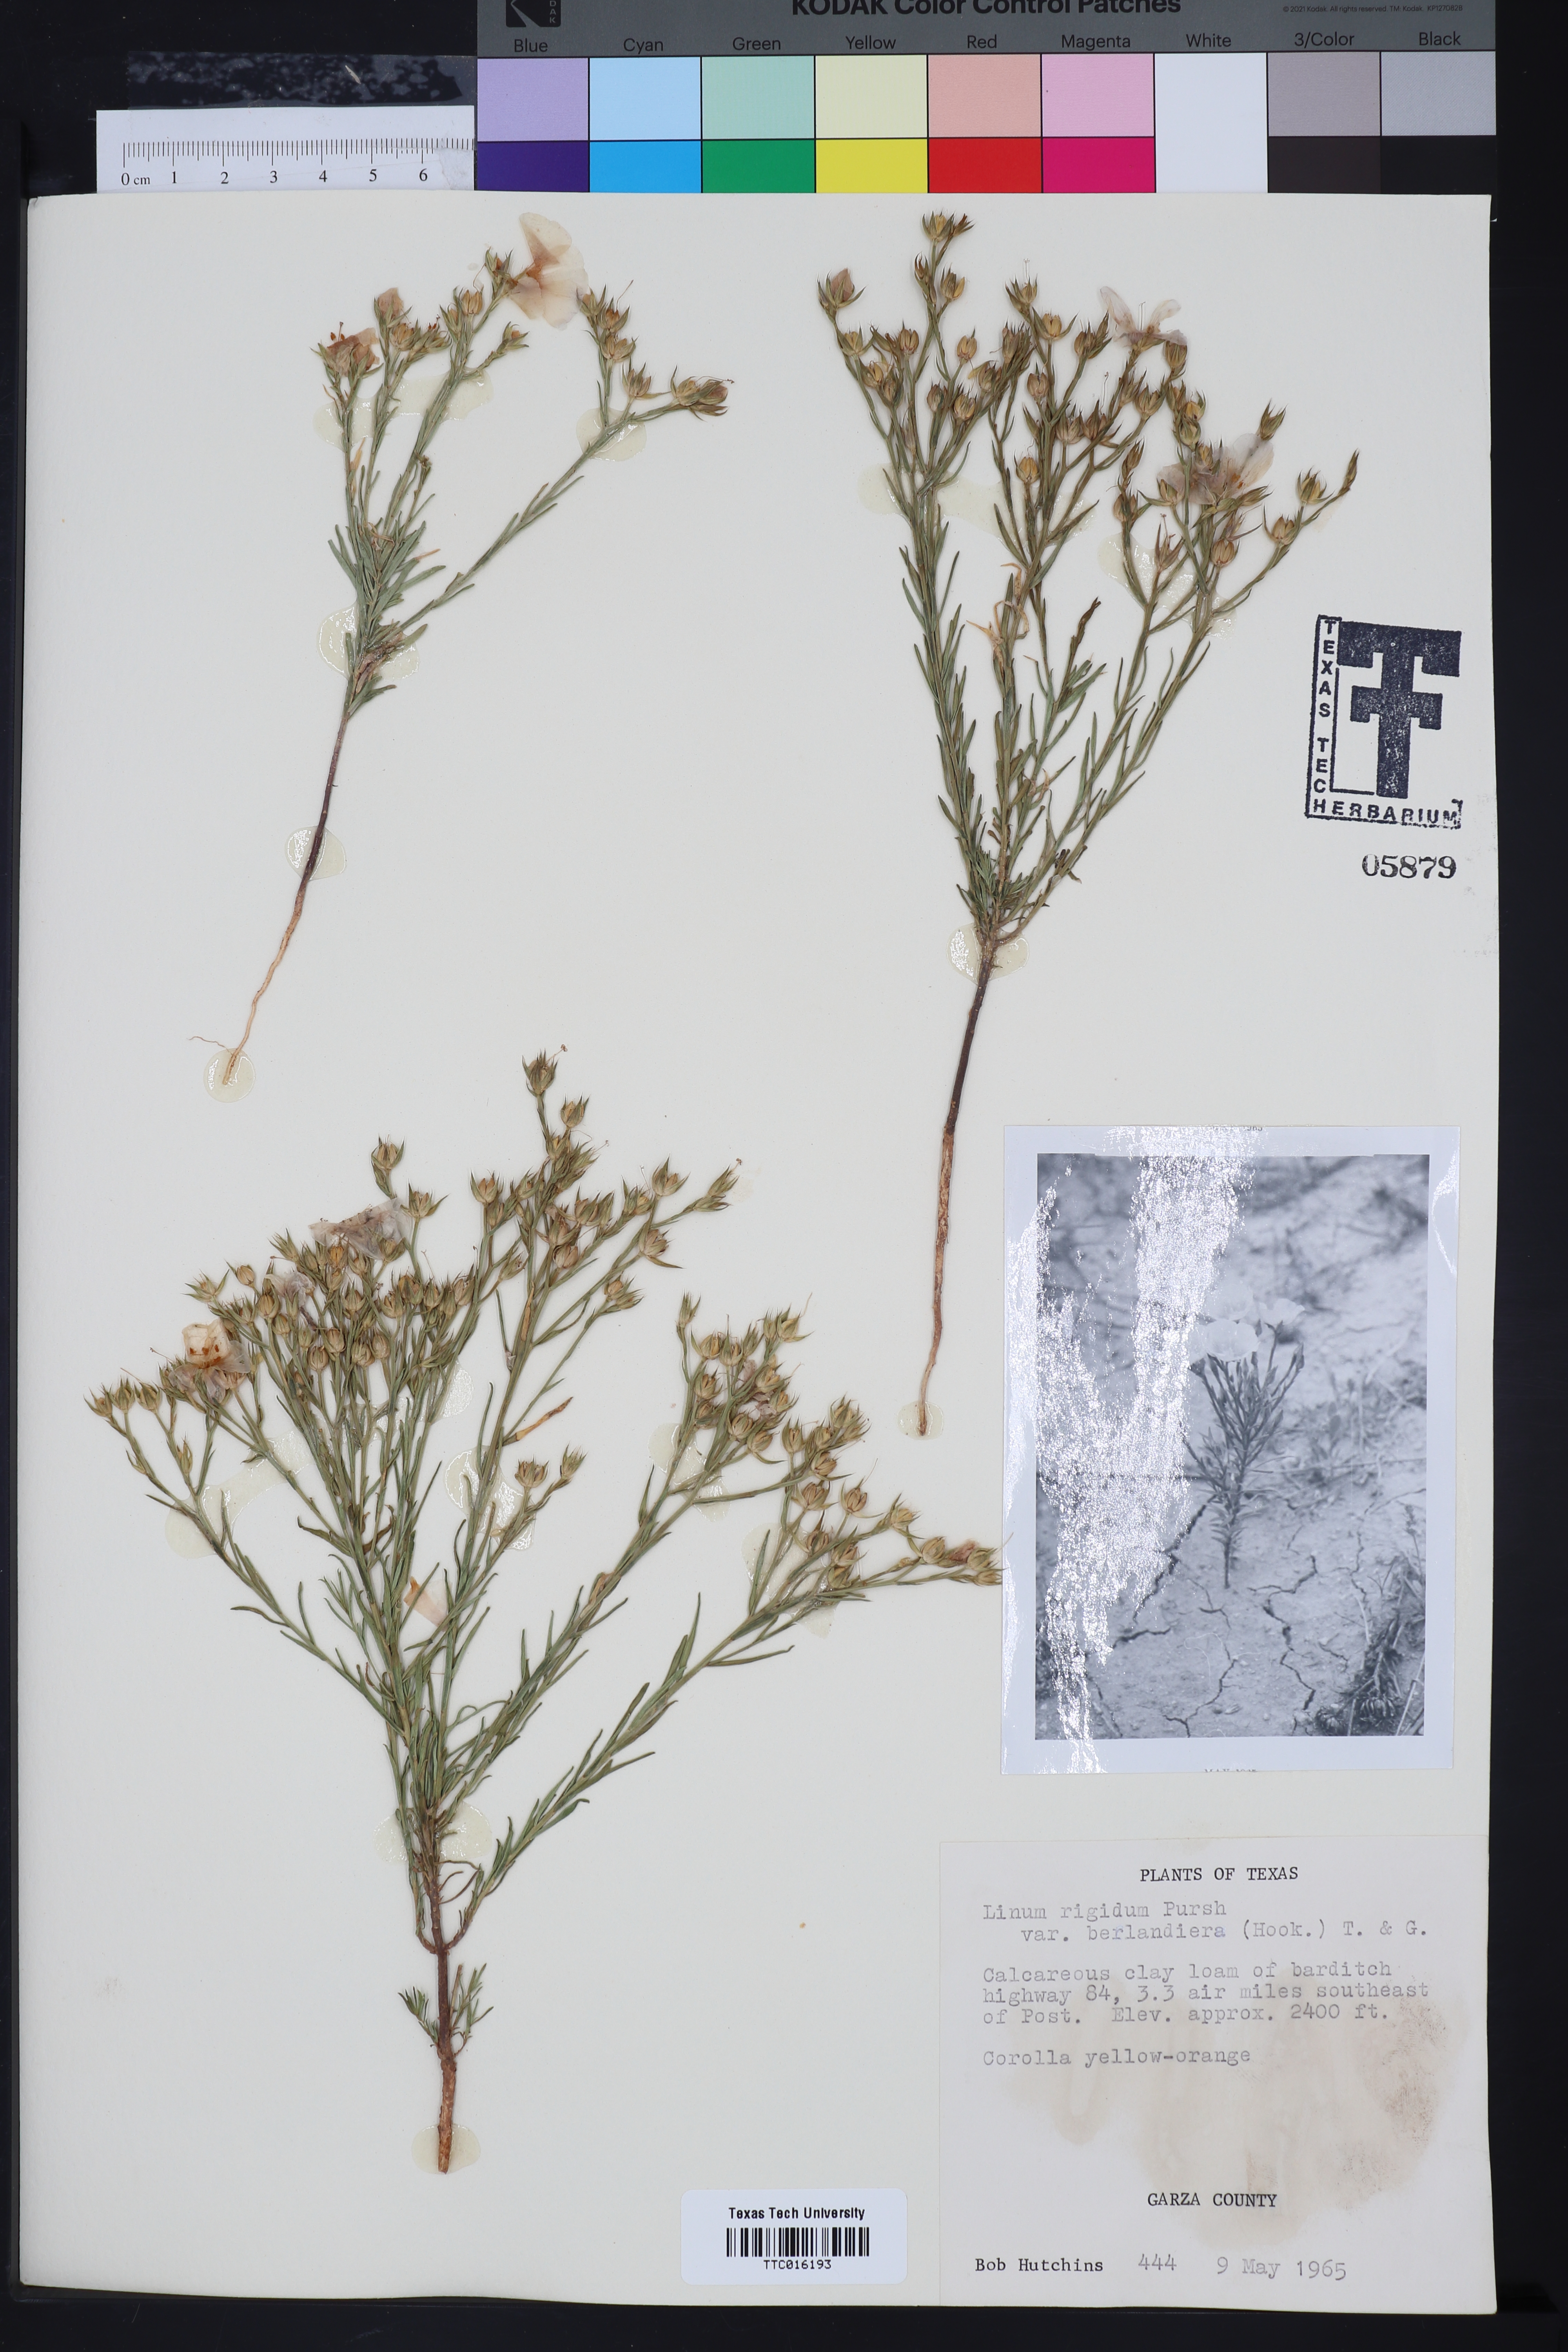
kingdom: Plantae
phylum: Tracheophyta
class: Magnoliopsida
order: Malpighiales
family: Linaceae
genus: Linum
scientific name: Linum berlandieri
